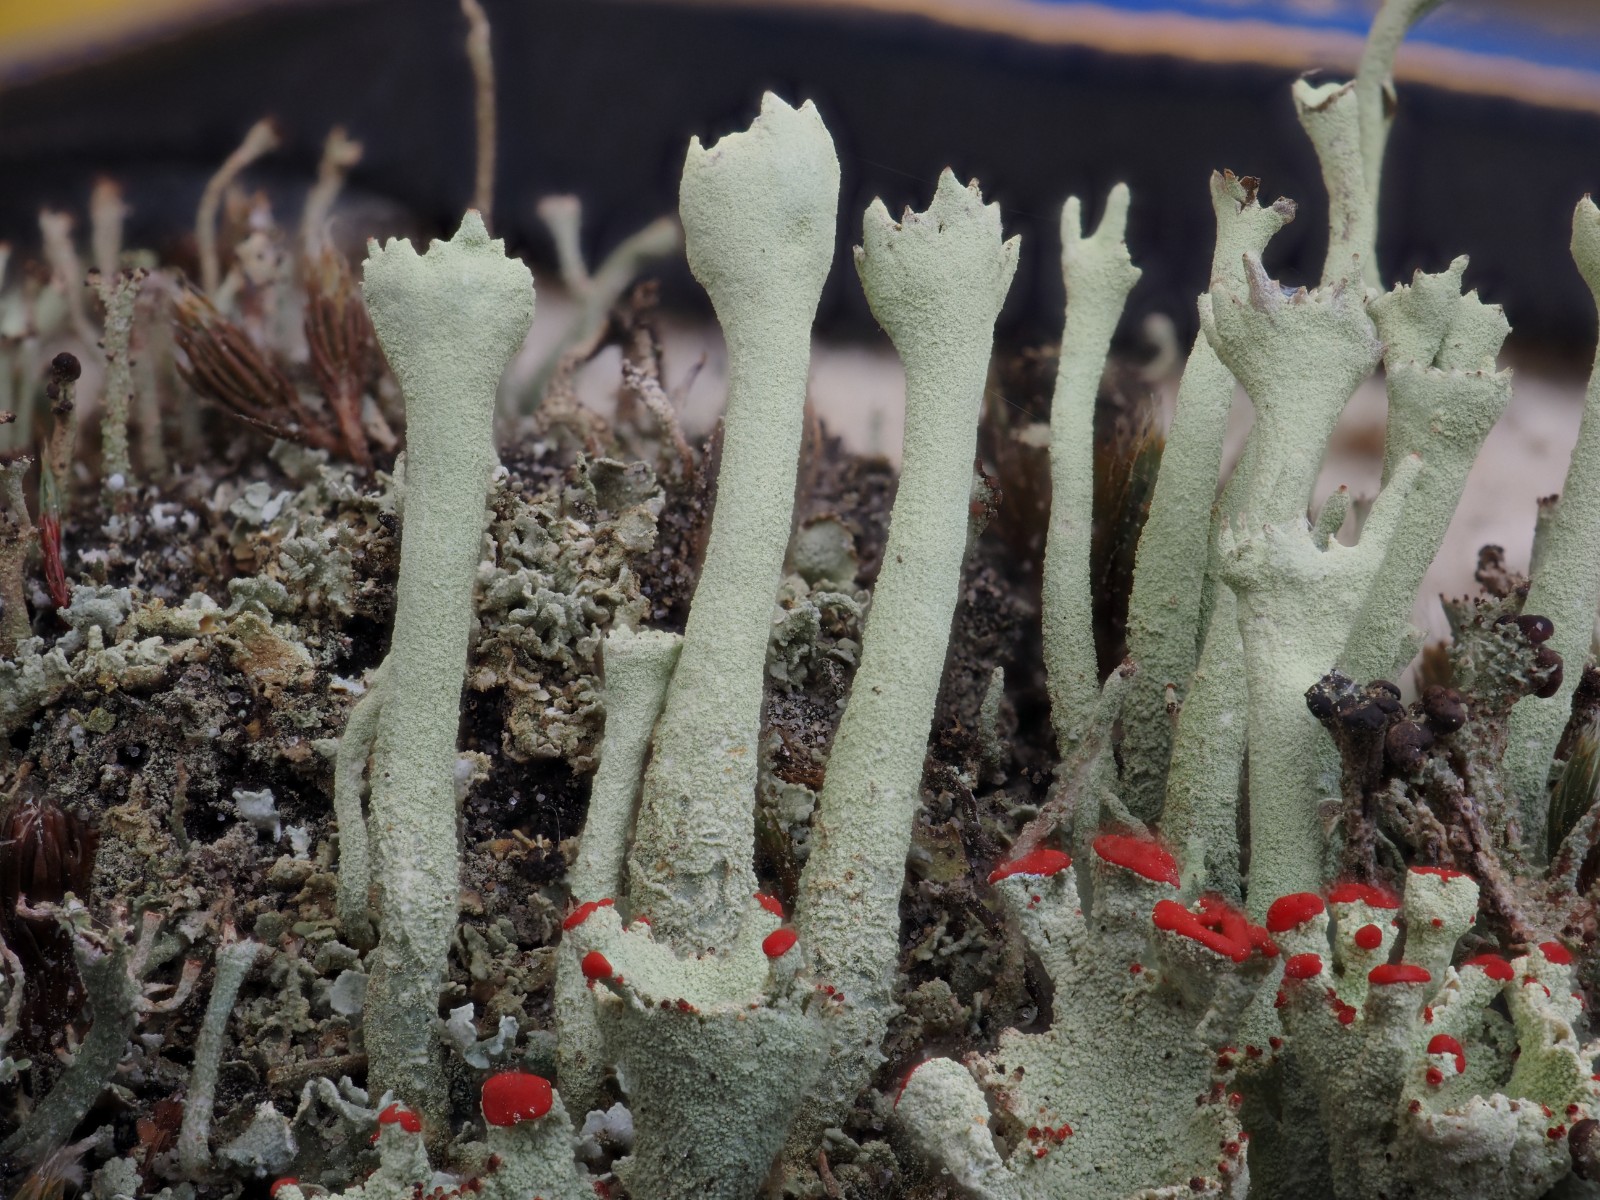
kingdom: Fungi
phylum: Ascomycota
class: Lecanoromycetes
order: Lecanorales
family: Cladoniaceae
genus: Cladonia
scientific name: Cladonia deformis
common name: kreneleret bægerlav
